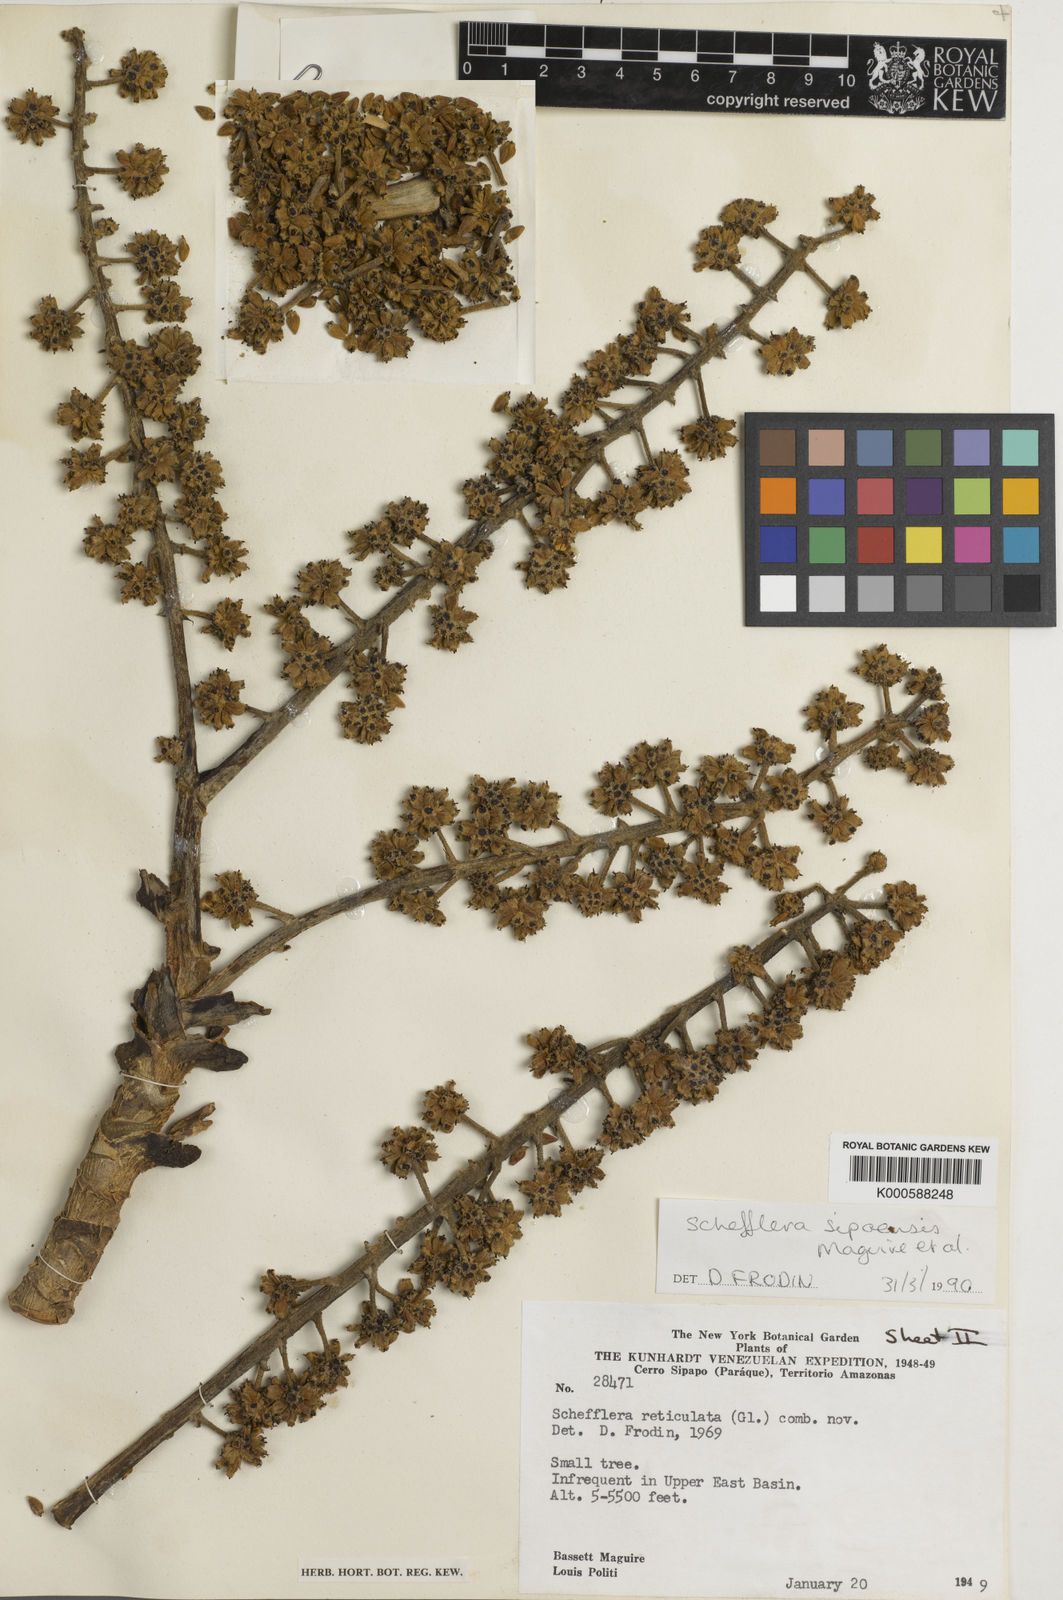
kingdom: Plantae
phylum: Tracheophyta
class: Magnoliopsida
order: Apiales
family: Araliaceae
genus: Sciodaphyllum
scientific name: Sciodaphyllum sipapoense
